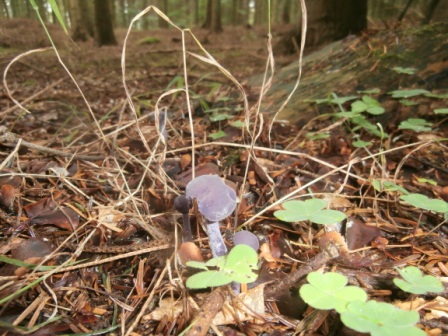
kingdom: Fungi
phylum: Basidiomycota
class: Agaricomycetes
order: Agaricales
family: Hydnangiaceae
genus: Laccaria
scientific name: Laccaria amethystina
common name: violet ametysthat
